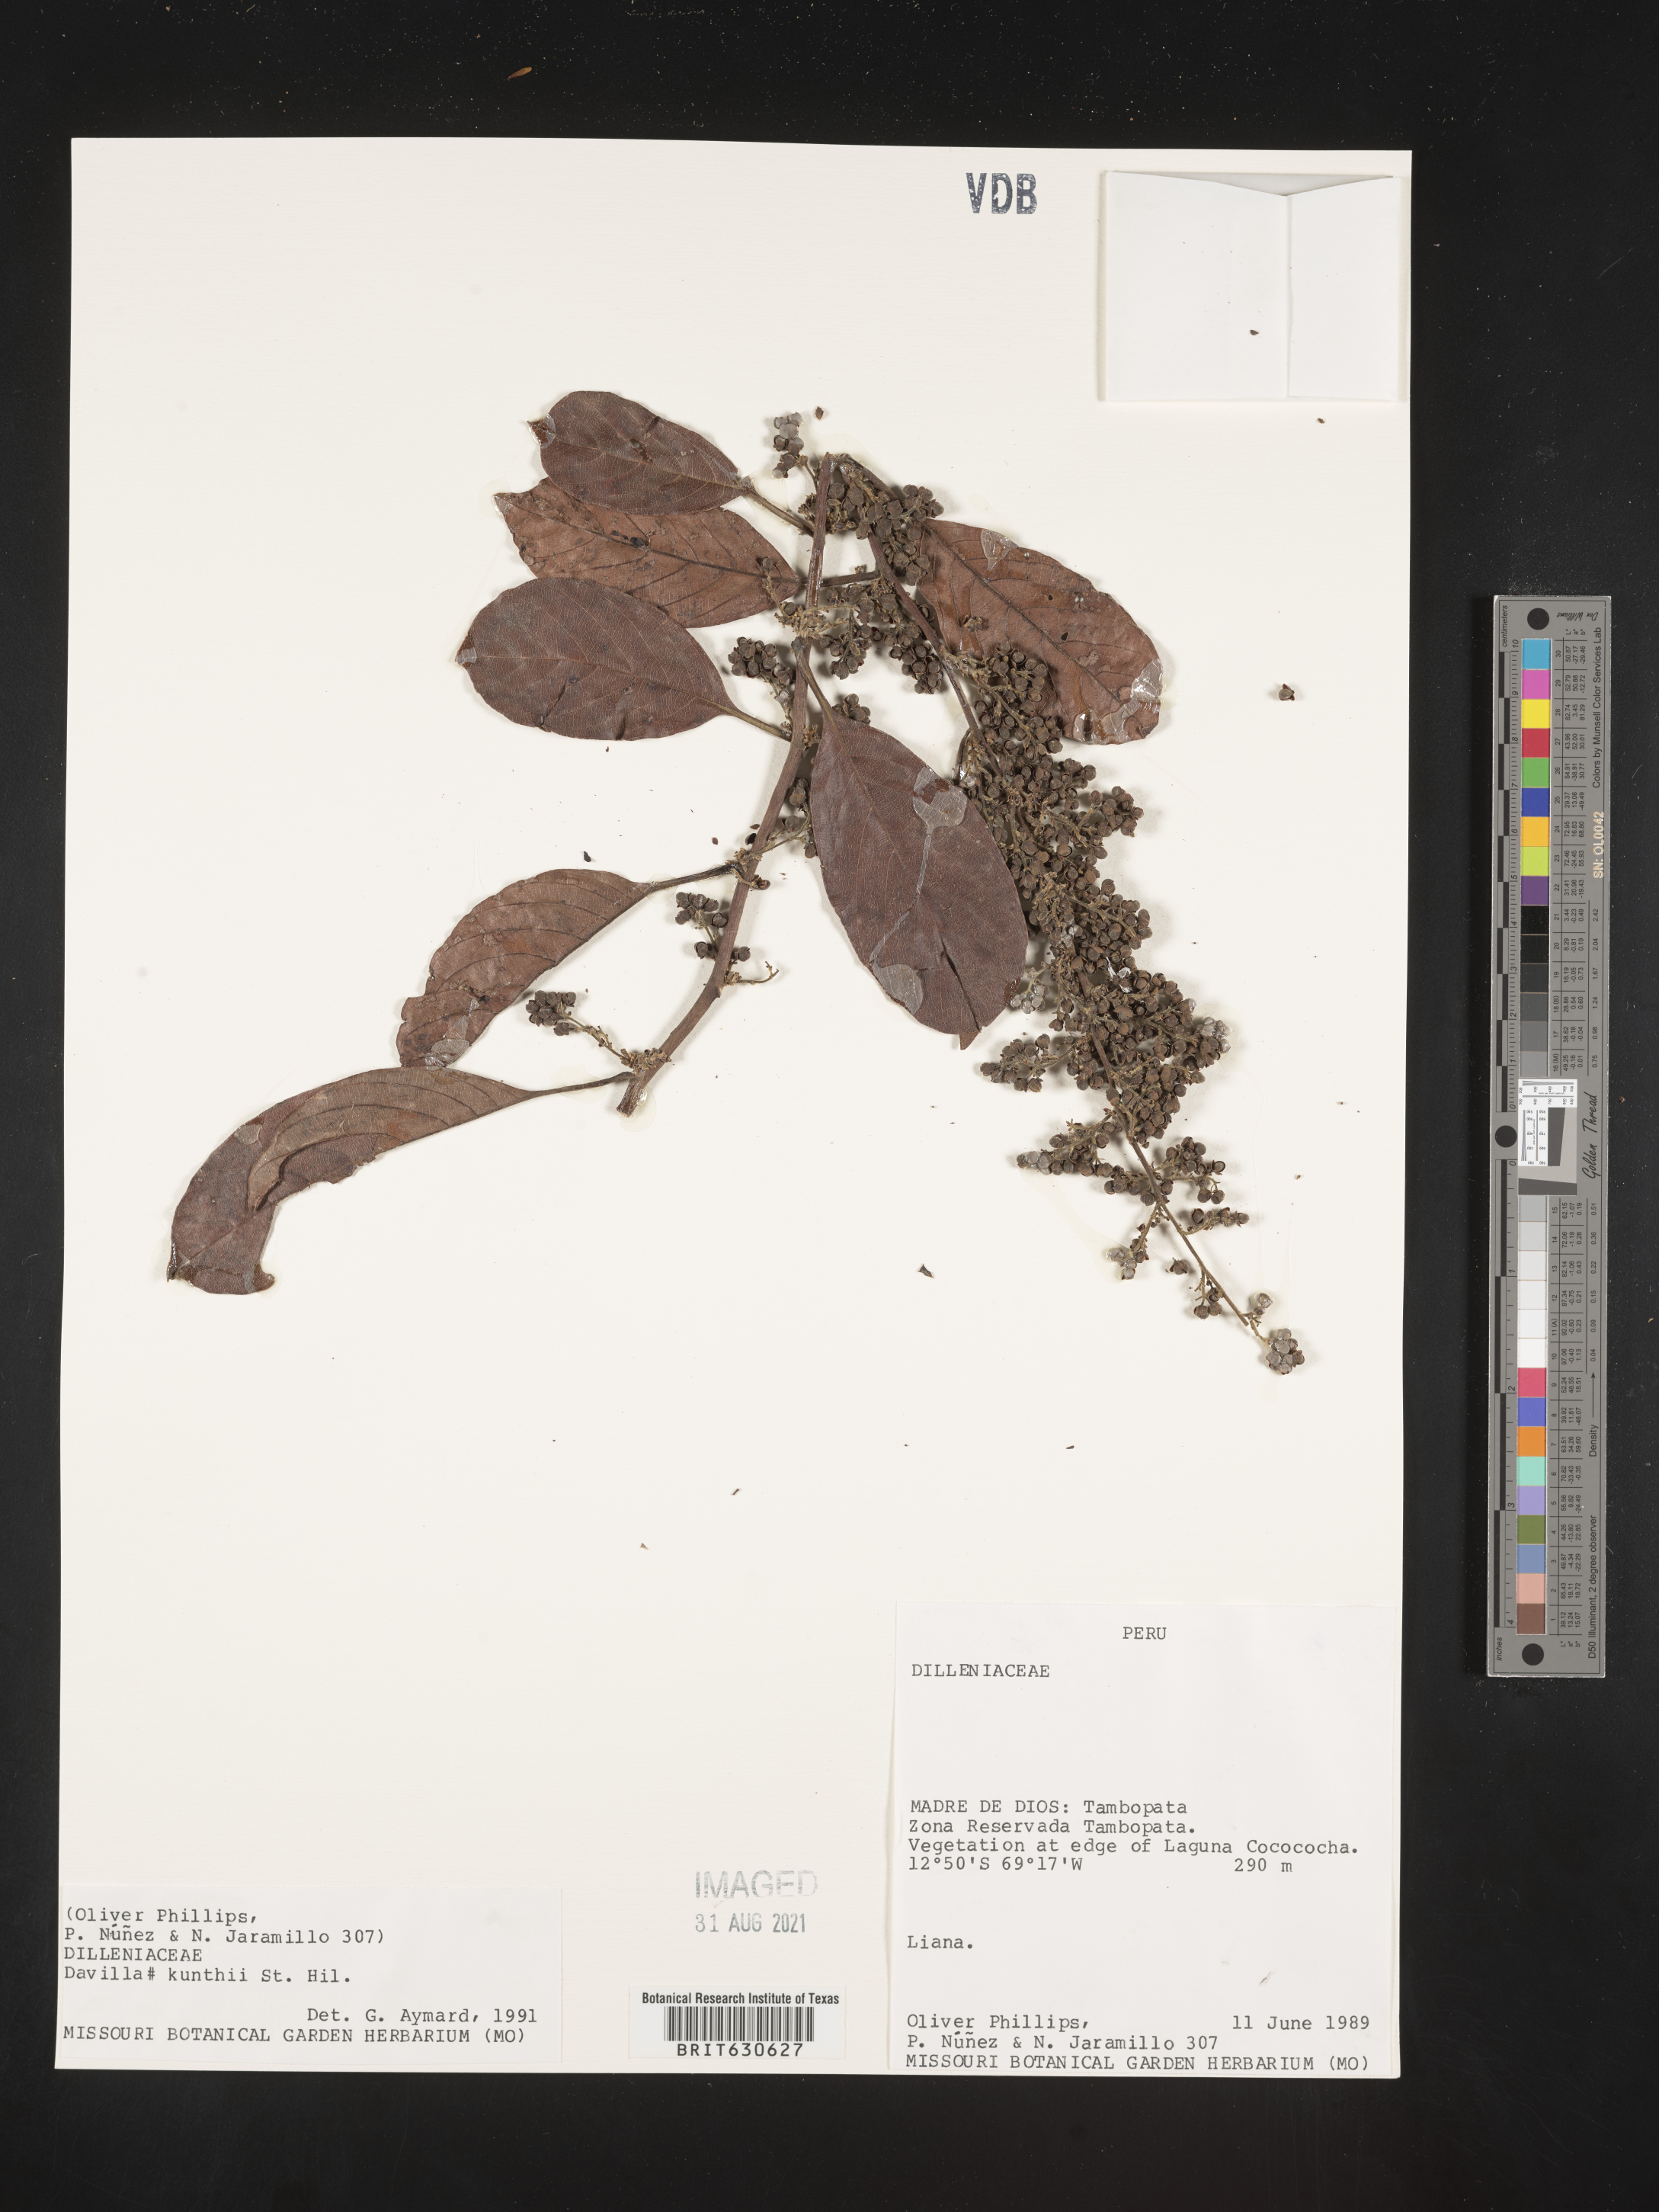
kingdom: Plantae
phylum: Tracheophyta
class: Magnoliopsida
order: Dilleniales
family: Dilleniaceae
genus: Davilla
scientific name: Davilla
